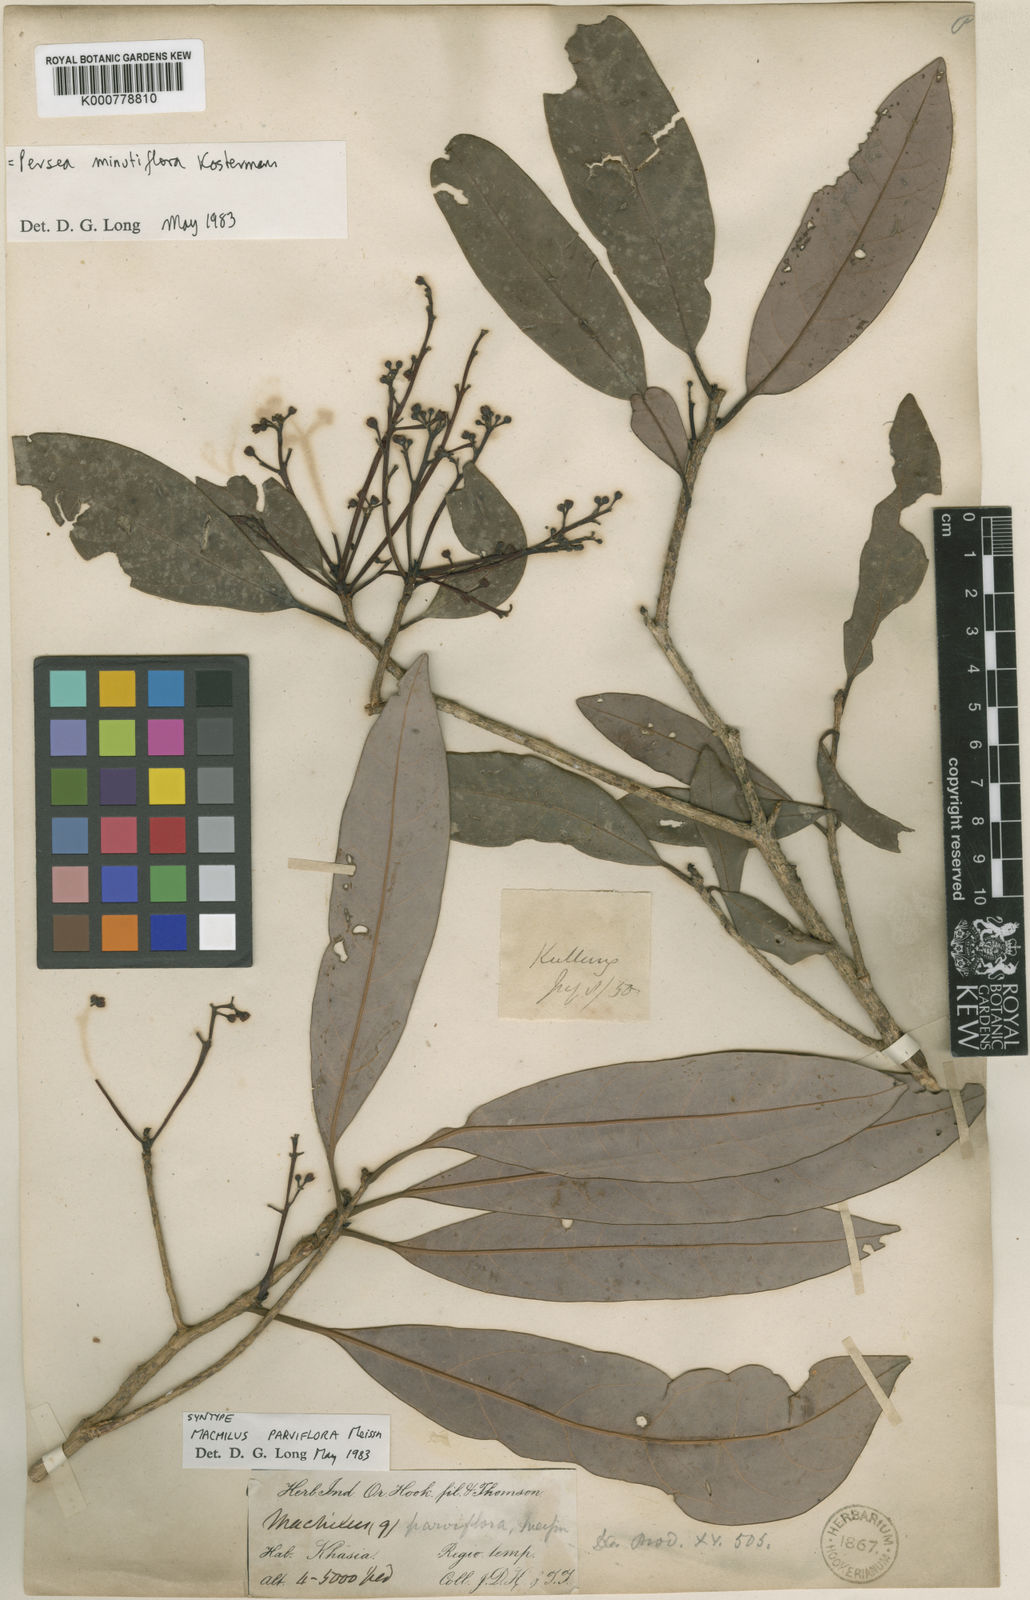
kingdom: Plantae
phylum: Tracheophyta
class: Magnoliopsida
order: Laurales
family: Lauraceae
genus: Machilus
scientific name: Machilus parviflora
